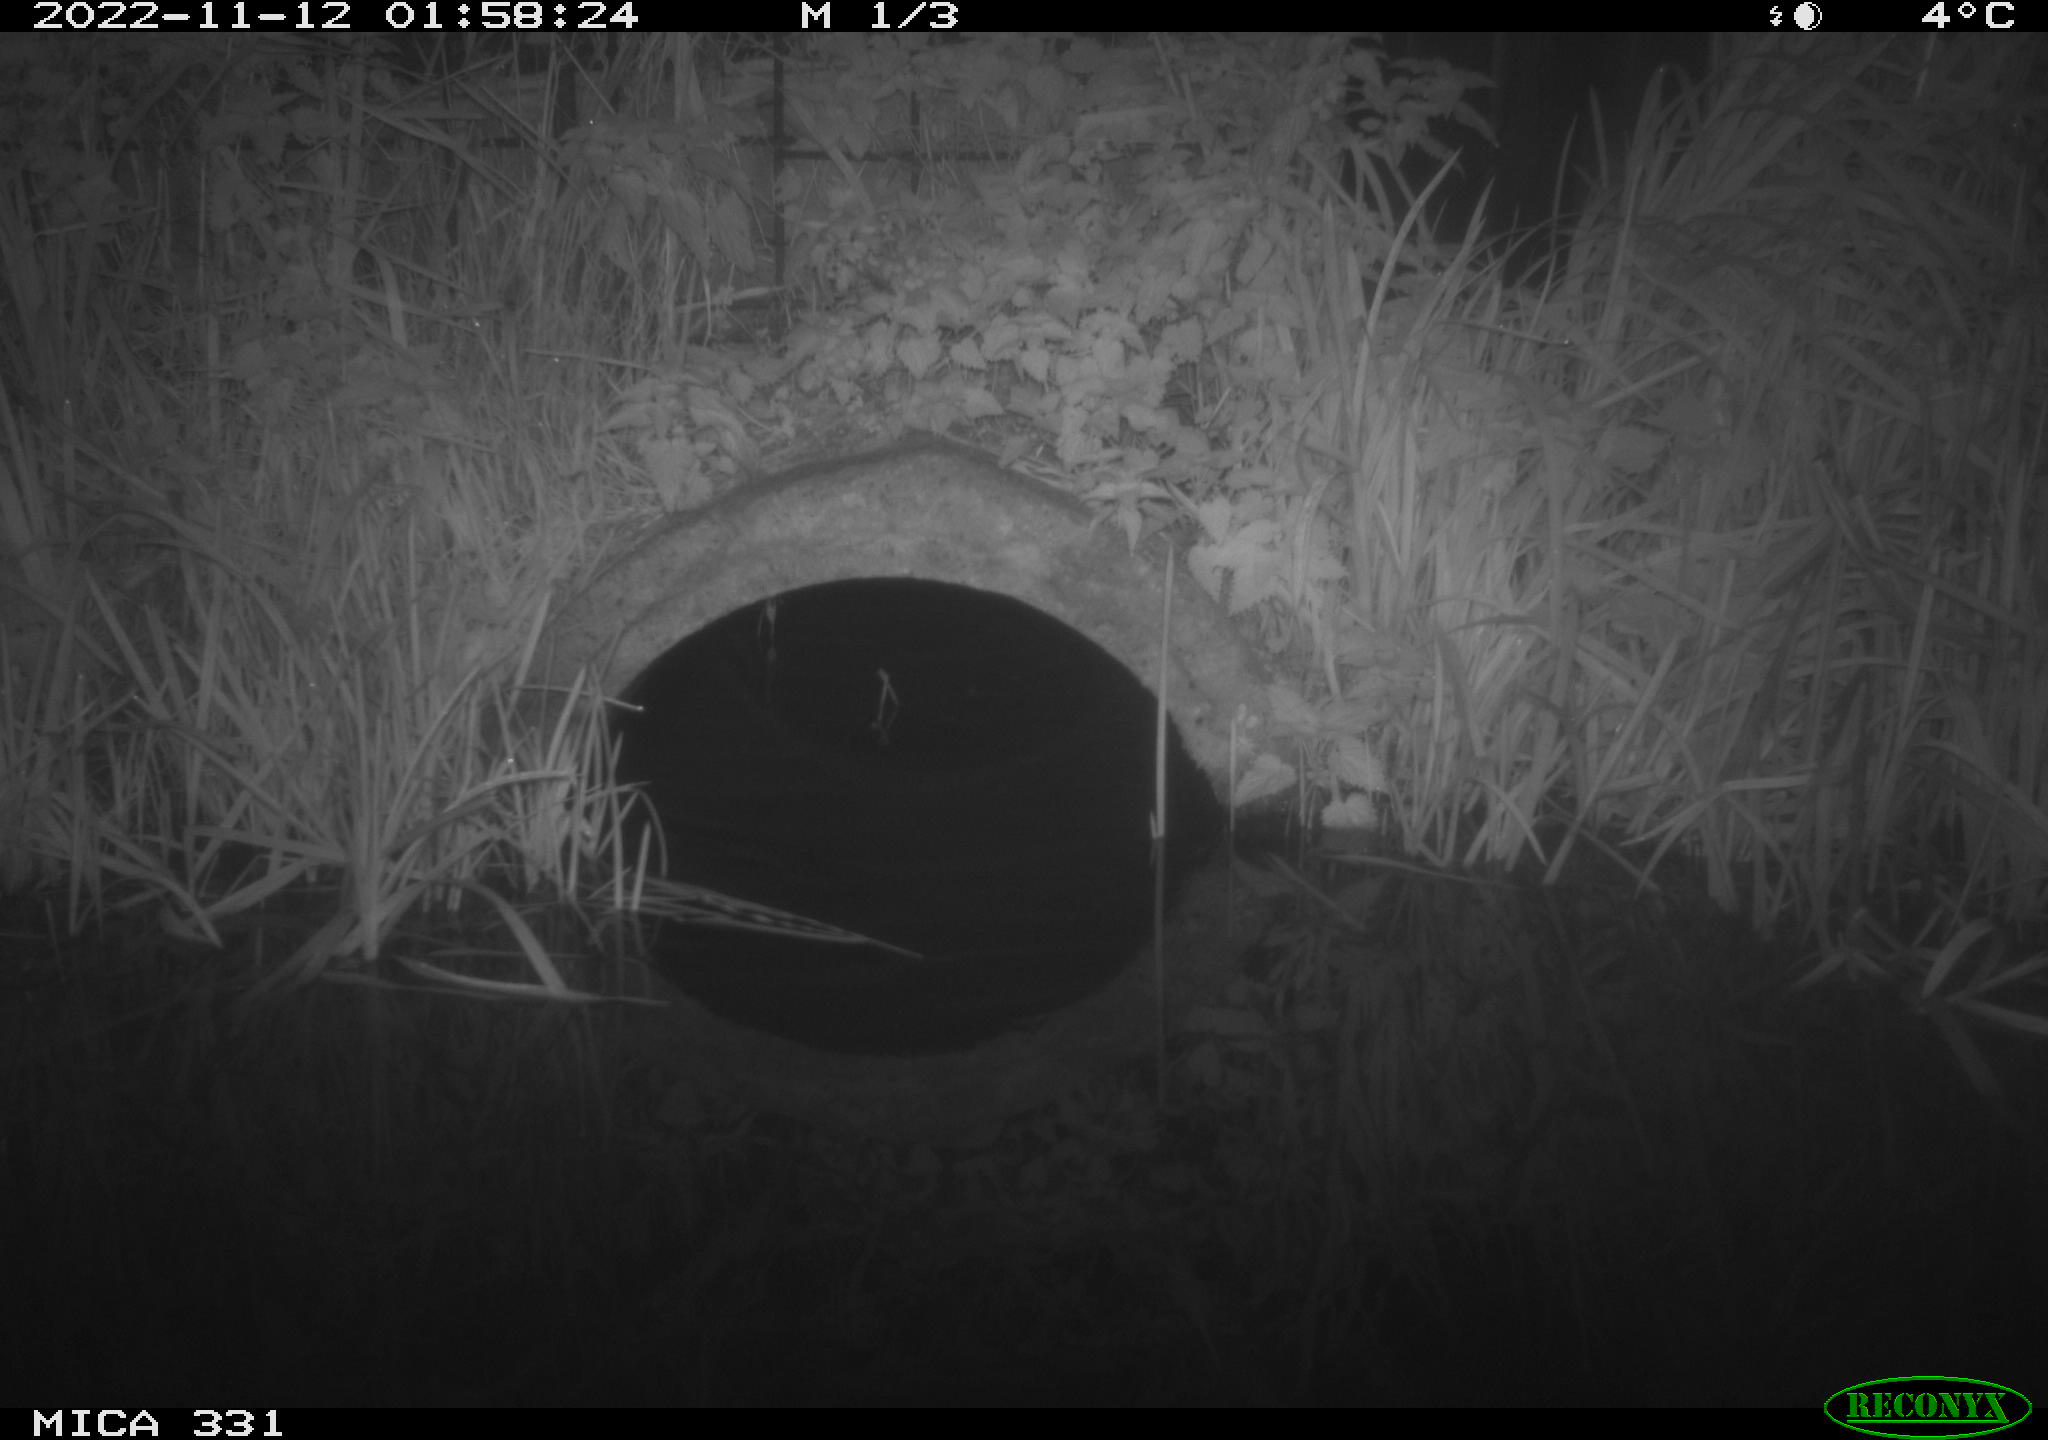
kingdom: Animalia
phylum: Chordata
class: Mammalia
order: Rodentia
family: Muridae
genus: Rattus
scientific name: Rattus norvegicus
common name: Brown rat
